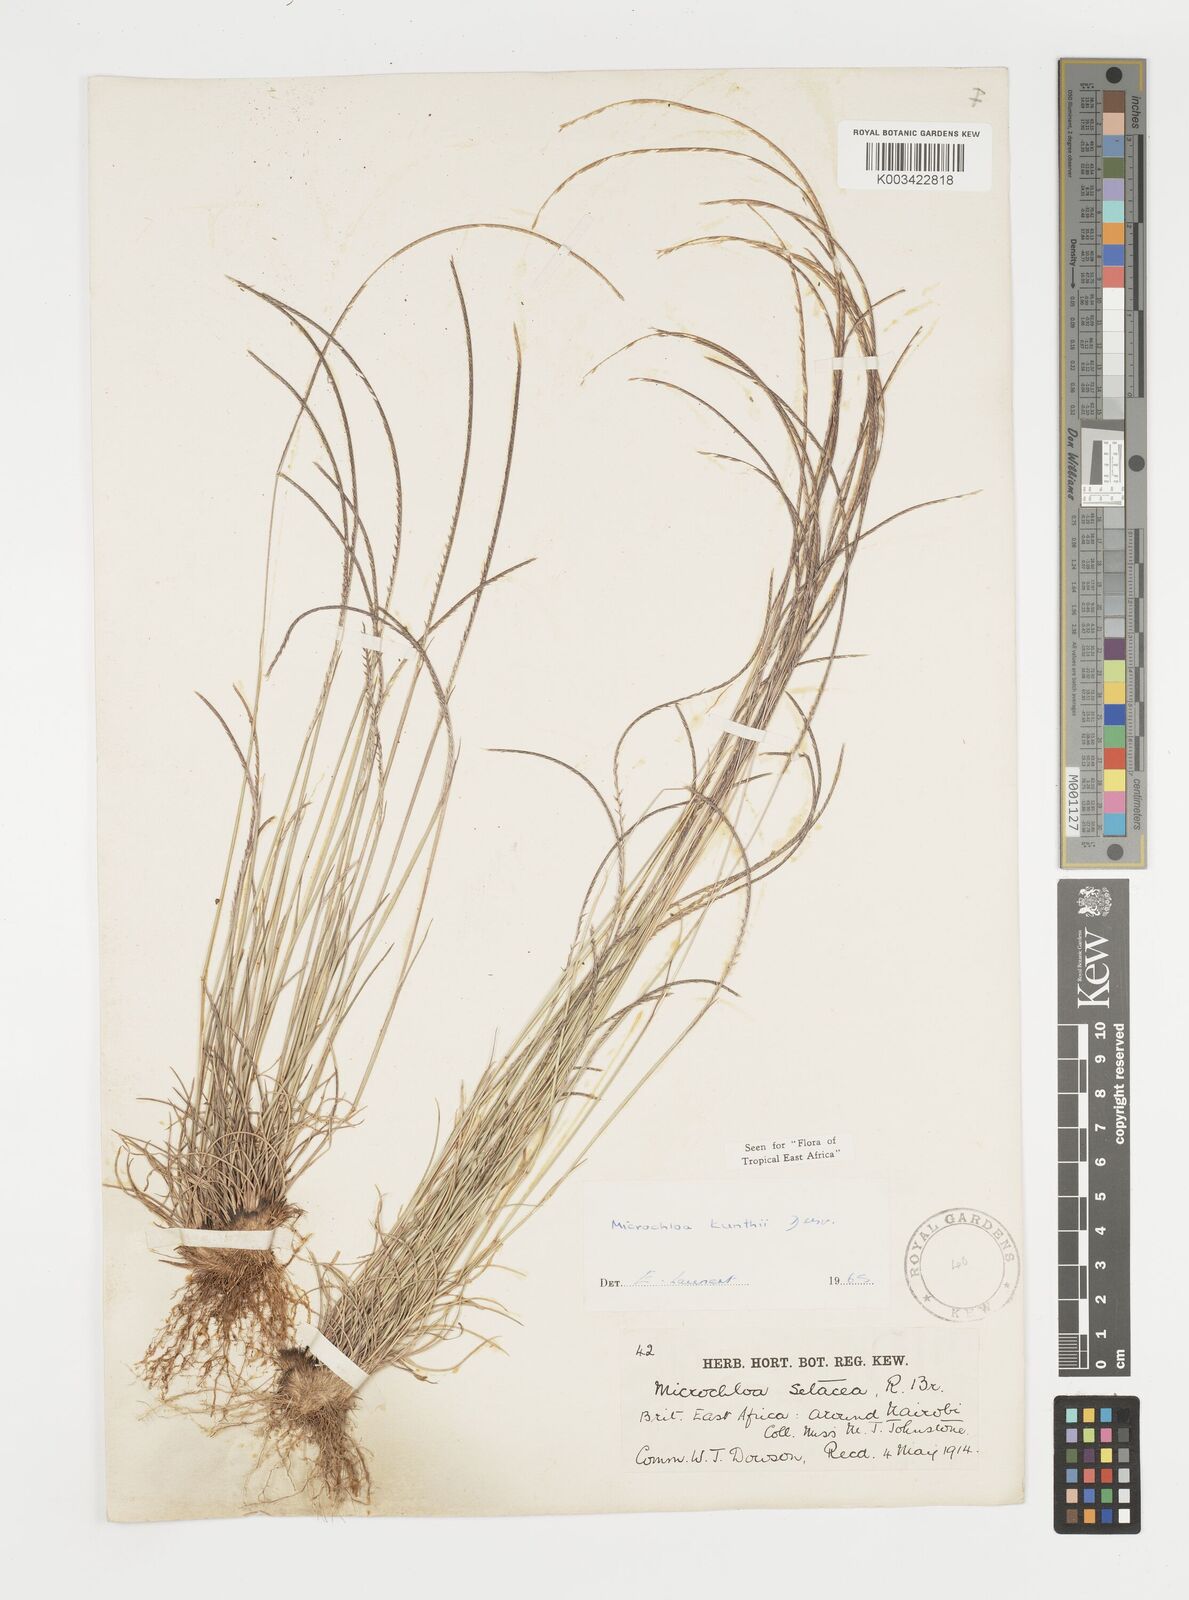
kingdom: Plantae
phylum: Tracheophyta
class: Liliopsida
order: Poales
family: Poaceae
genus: Microchloa
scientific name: Microchloa kunthii
